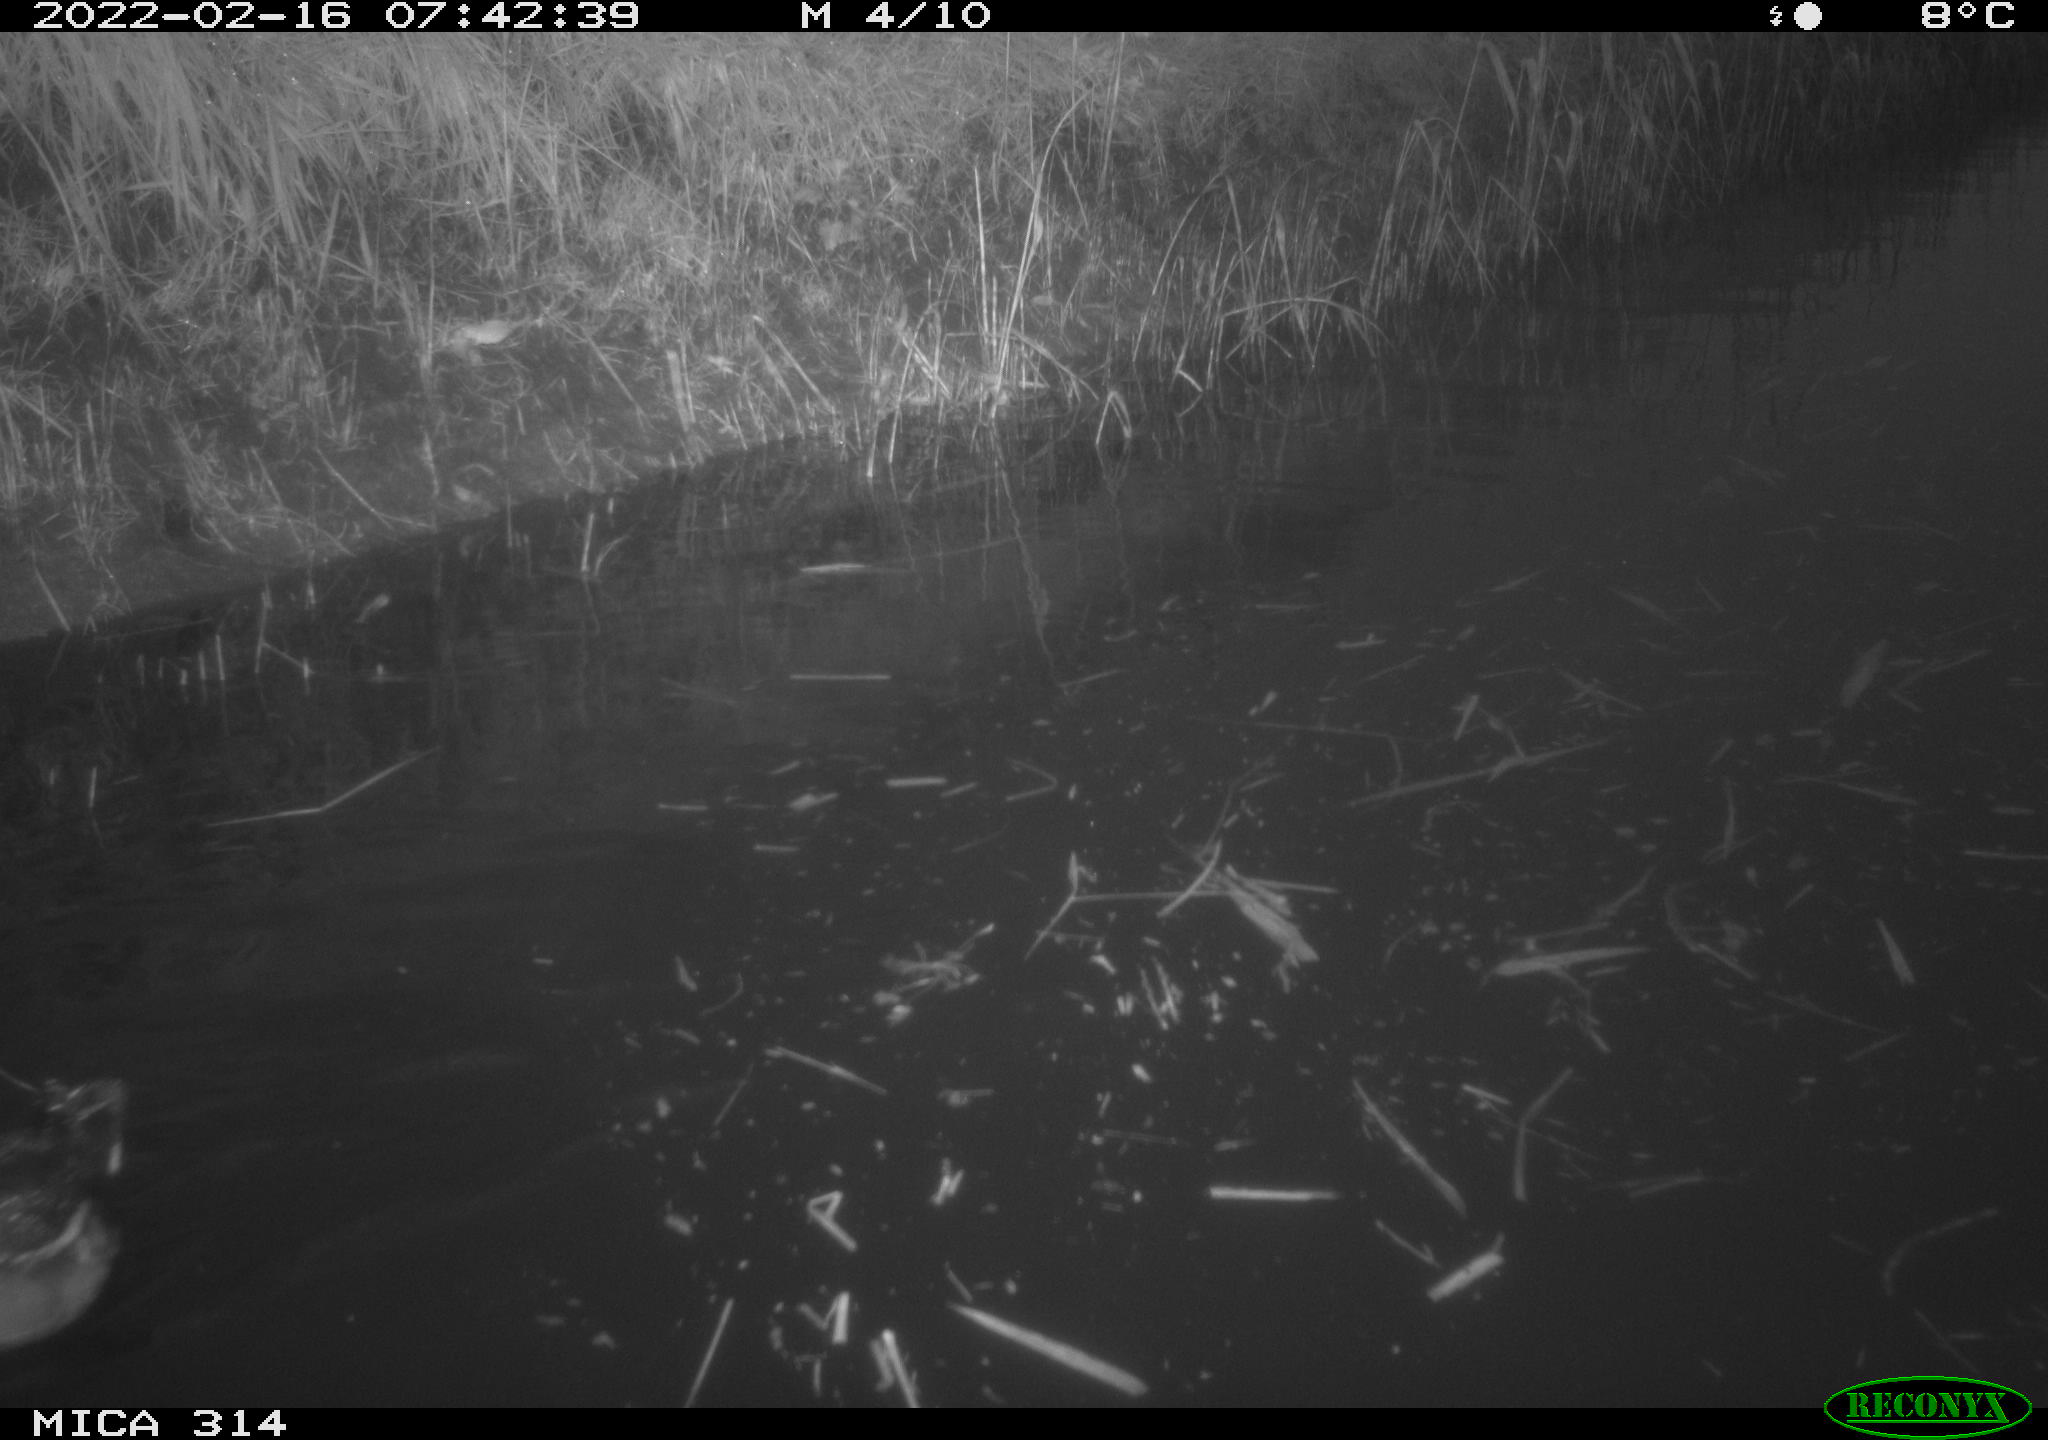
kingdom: Animalia
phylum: Chordata
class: Aves
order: Gruiformes
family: Rallidae
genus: Gallinula
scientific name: Gallinula chloropus
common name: Common moorhen
